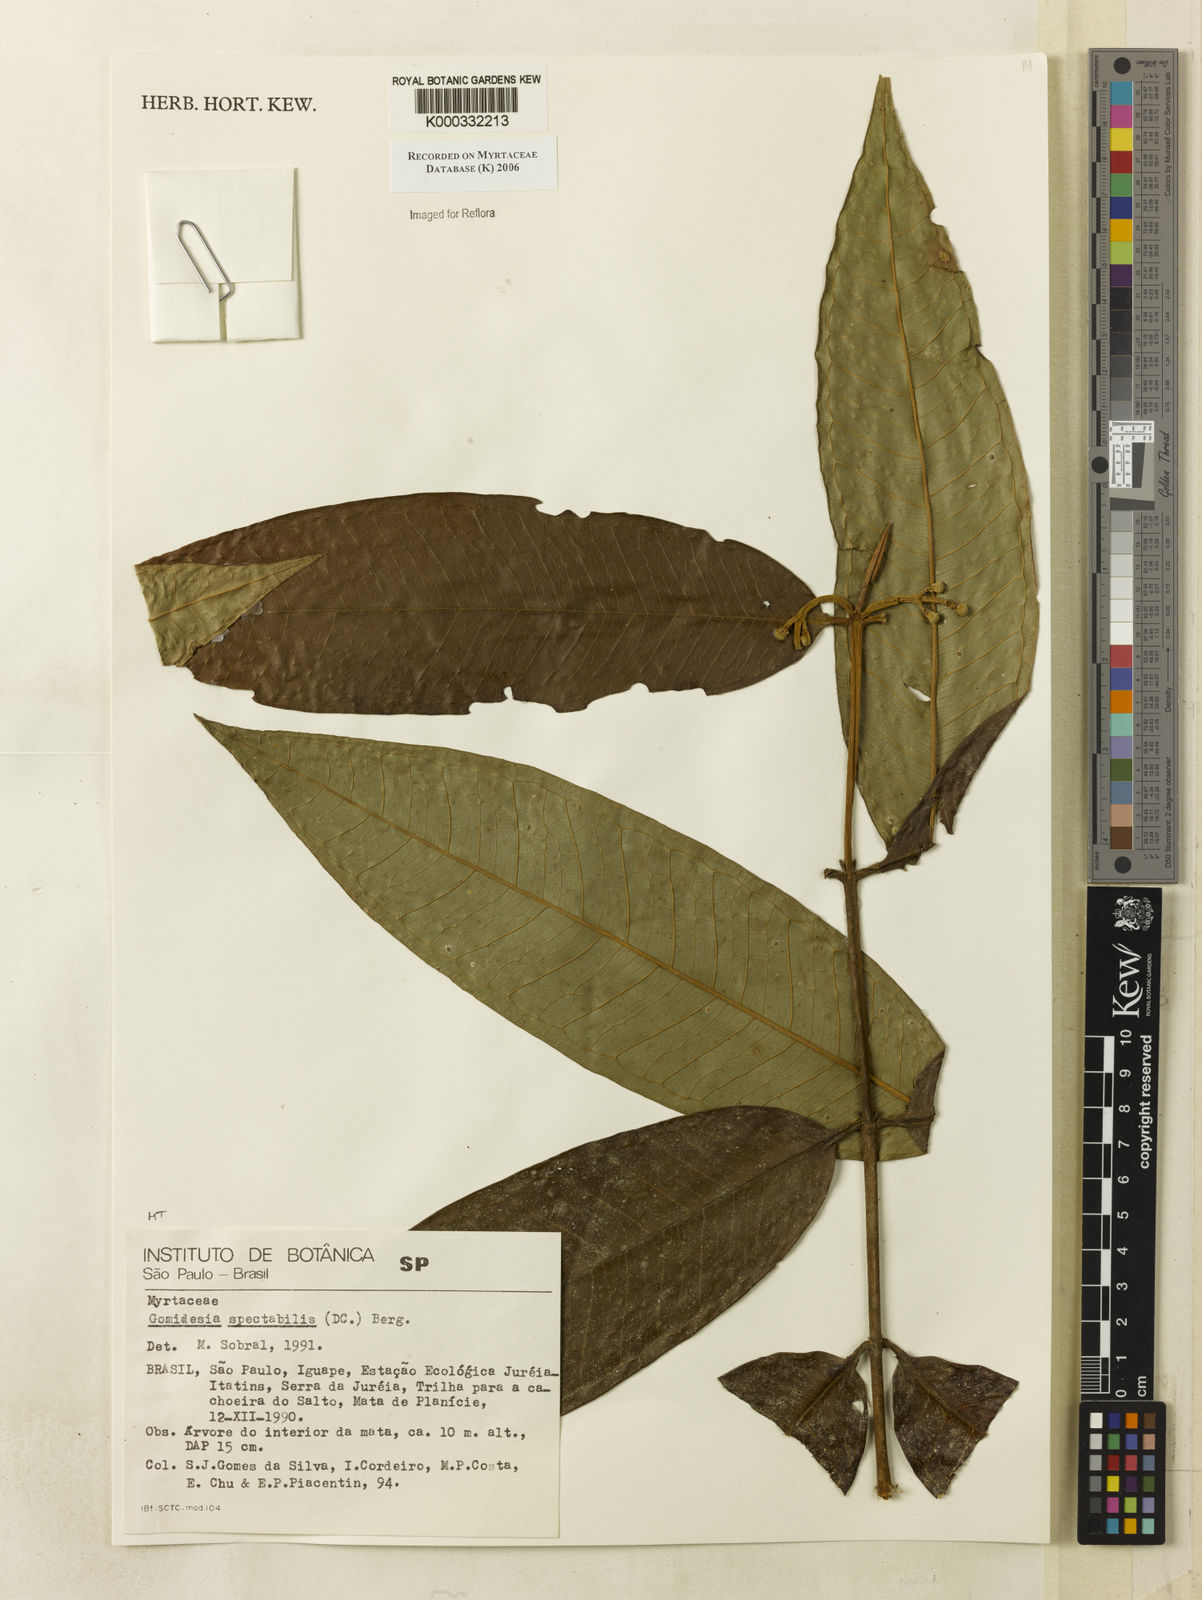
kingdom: Plantae
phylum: Tracheophyta
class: Magnoliopsida
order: Myrtales
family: Myrtaceae
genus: Myrcia
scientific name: Myrcia spectabilis
